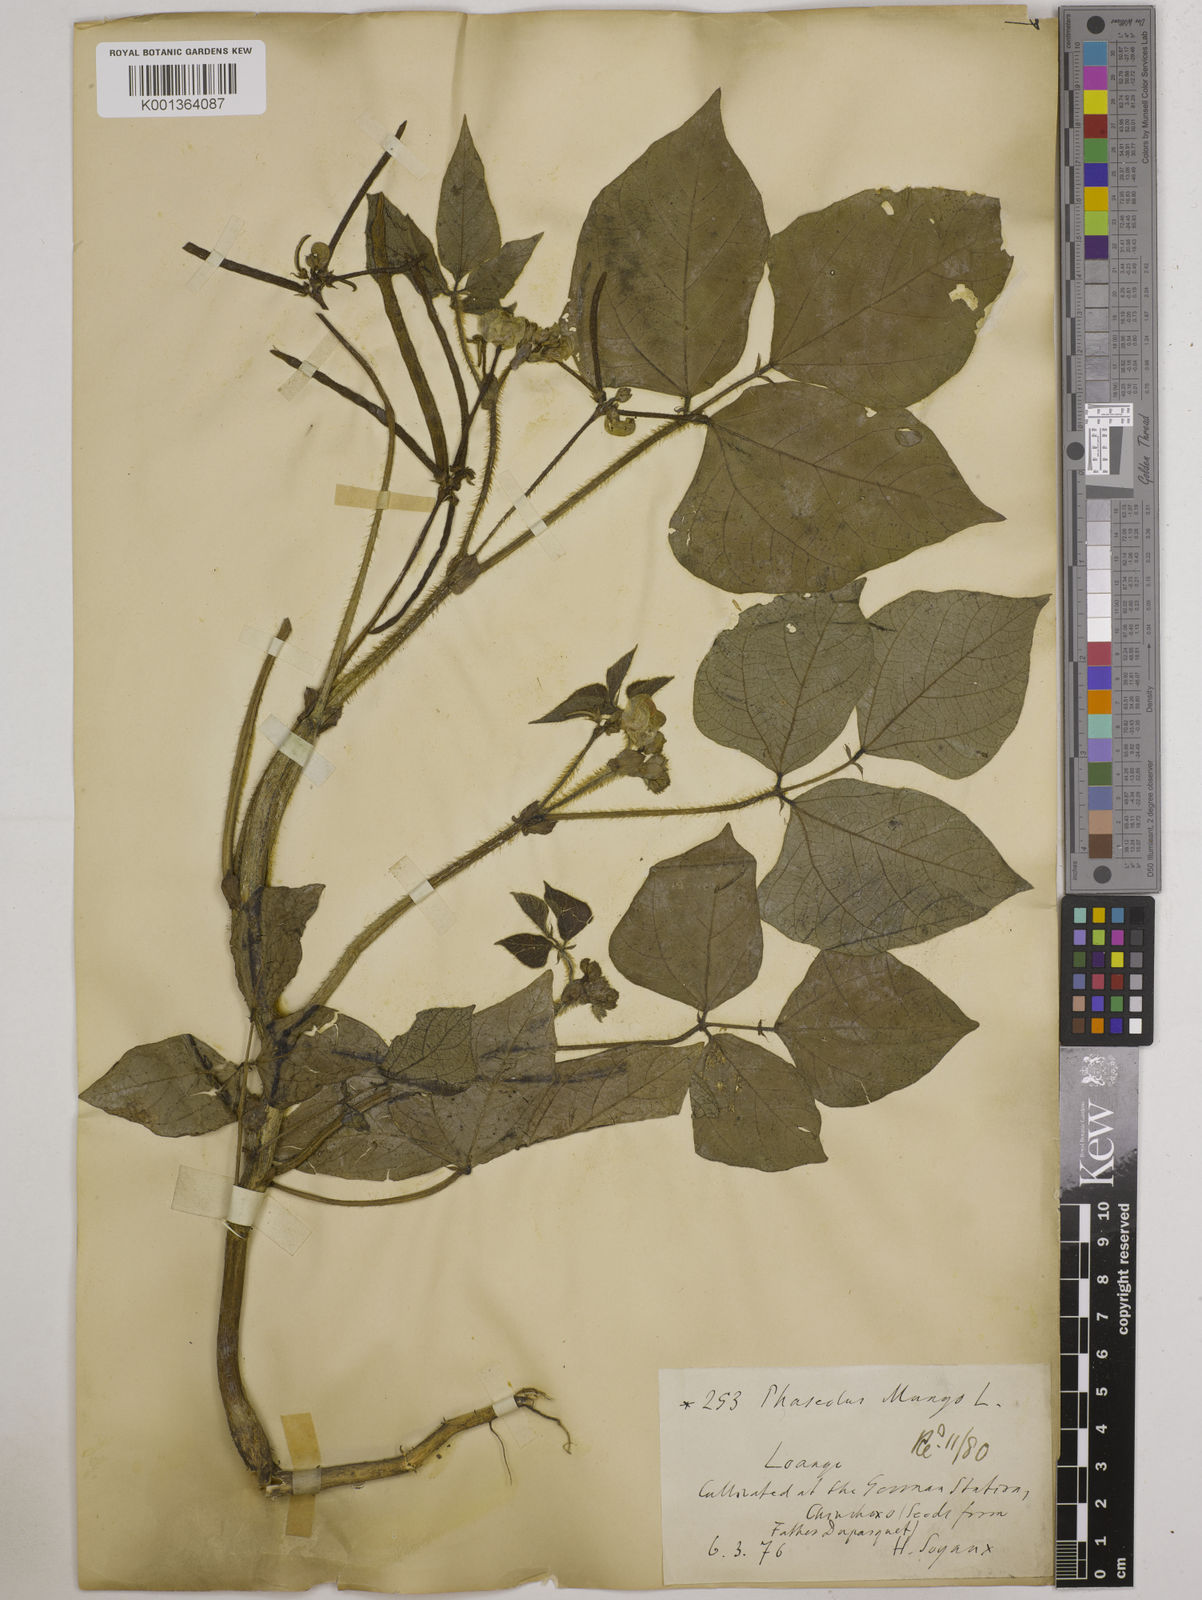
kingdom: Plantae
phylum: Tracheophyta
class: Magnoliopsida
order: Fabales
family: Fabaceae
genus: Vigna
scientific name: Vigna radiata
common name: Mung-bean
